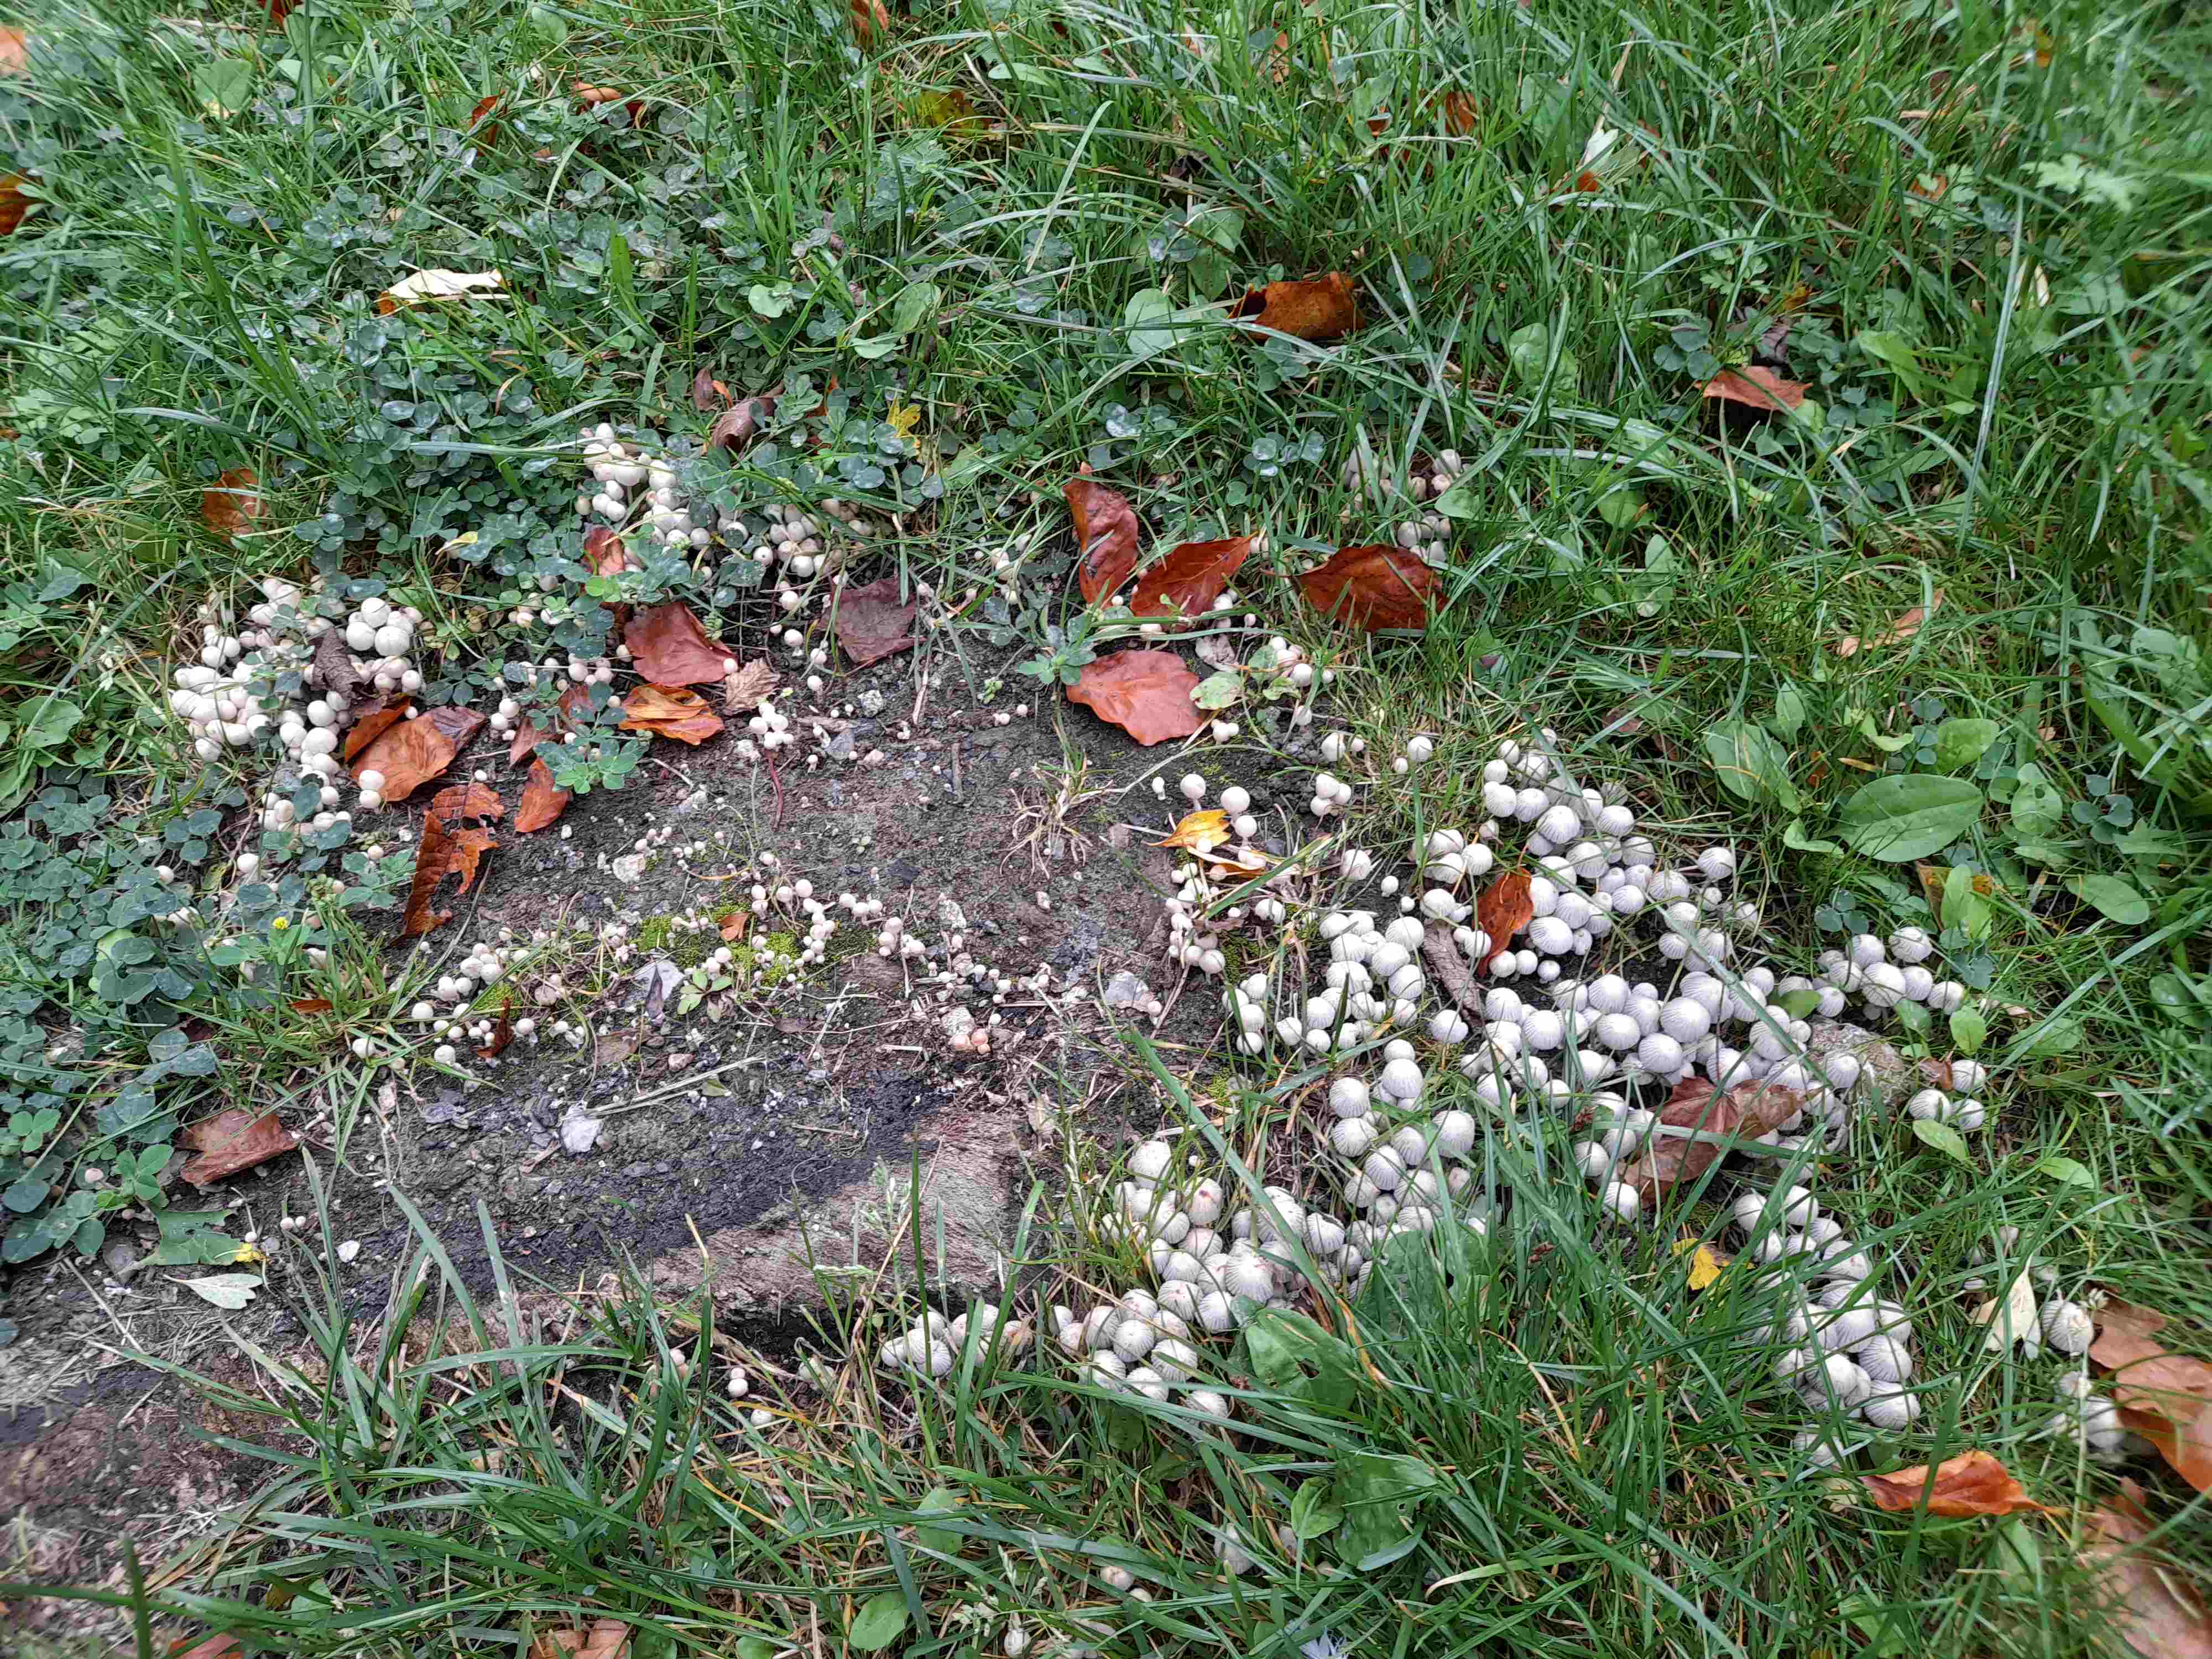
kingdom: Fungi
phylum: Basidiomycota
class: Agaricomycetes
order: Agaricales
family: Psathyrellaceae
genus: Coprinellus
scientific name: Coprinellus disseminatus
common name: bredsået blækhat
